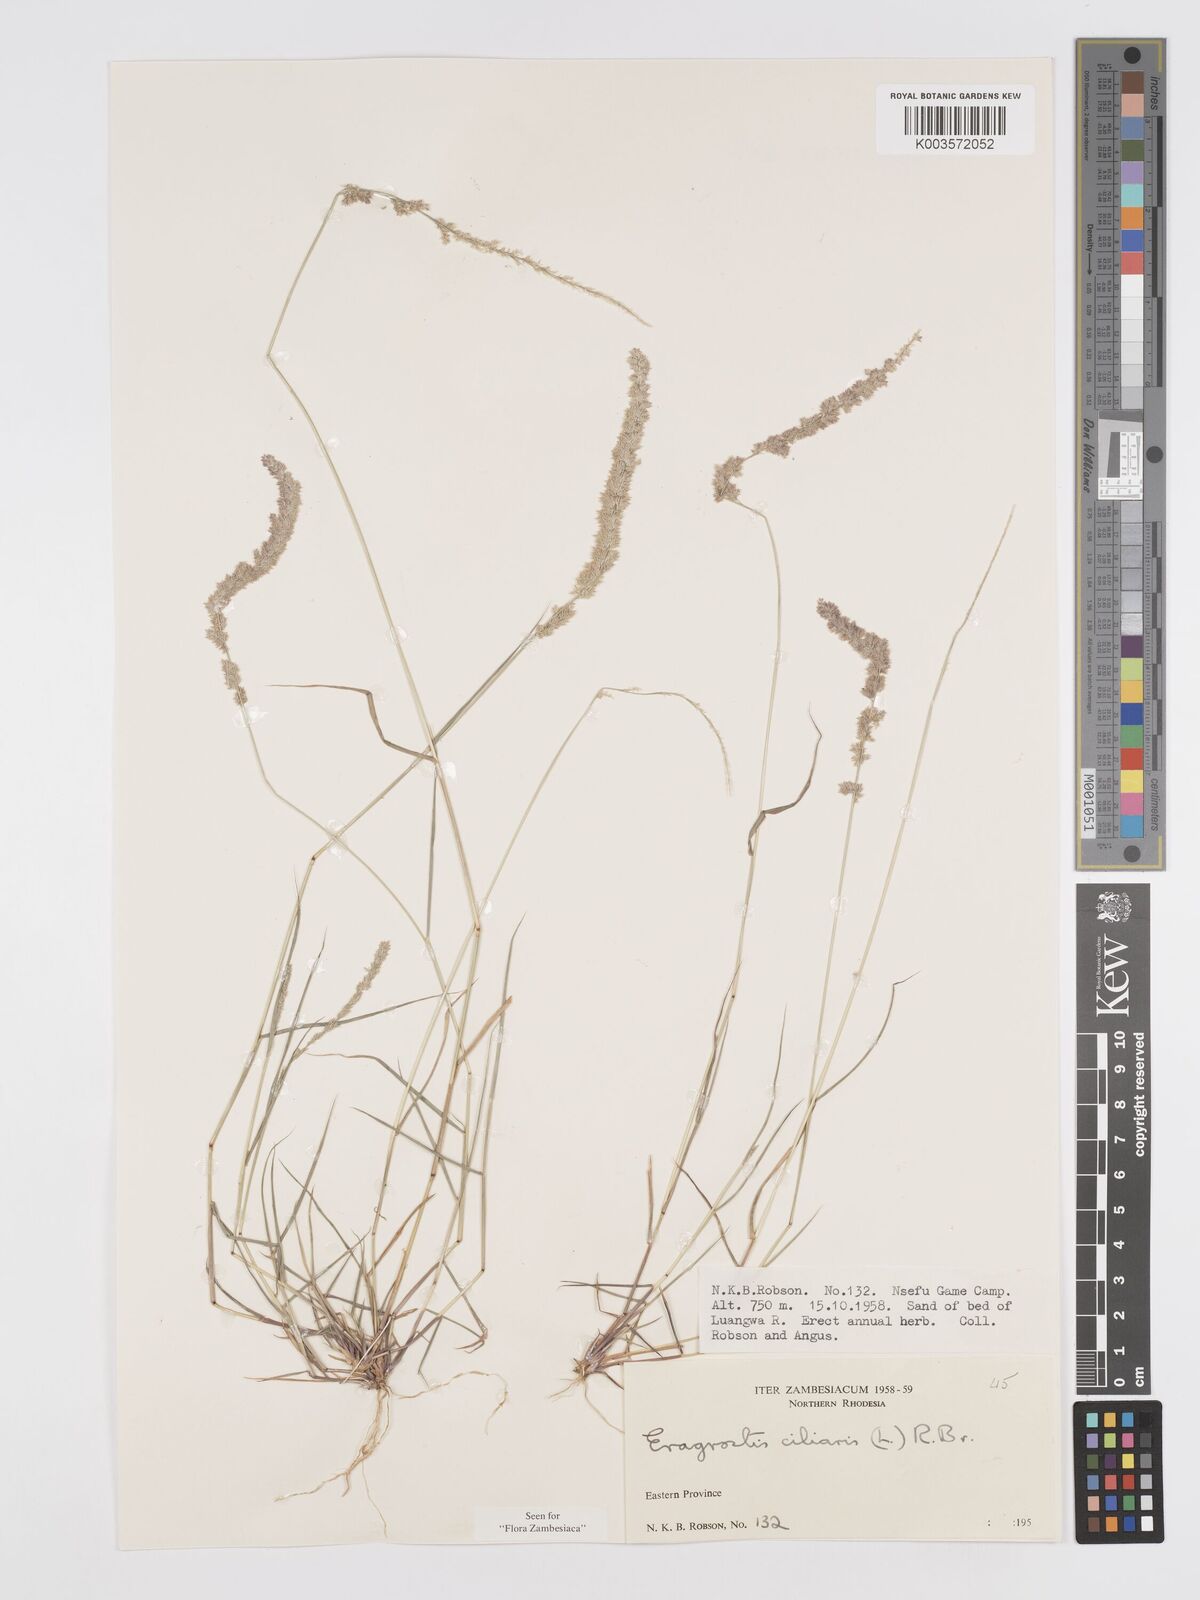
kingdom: Plantae
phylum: Tracheophyta
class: Liliopsida
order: Poales
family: Poaceae
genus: Eragrostis
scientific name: Eragrostis ciliaris
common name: Gophertail lovegrass
